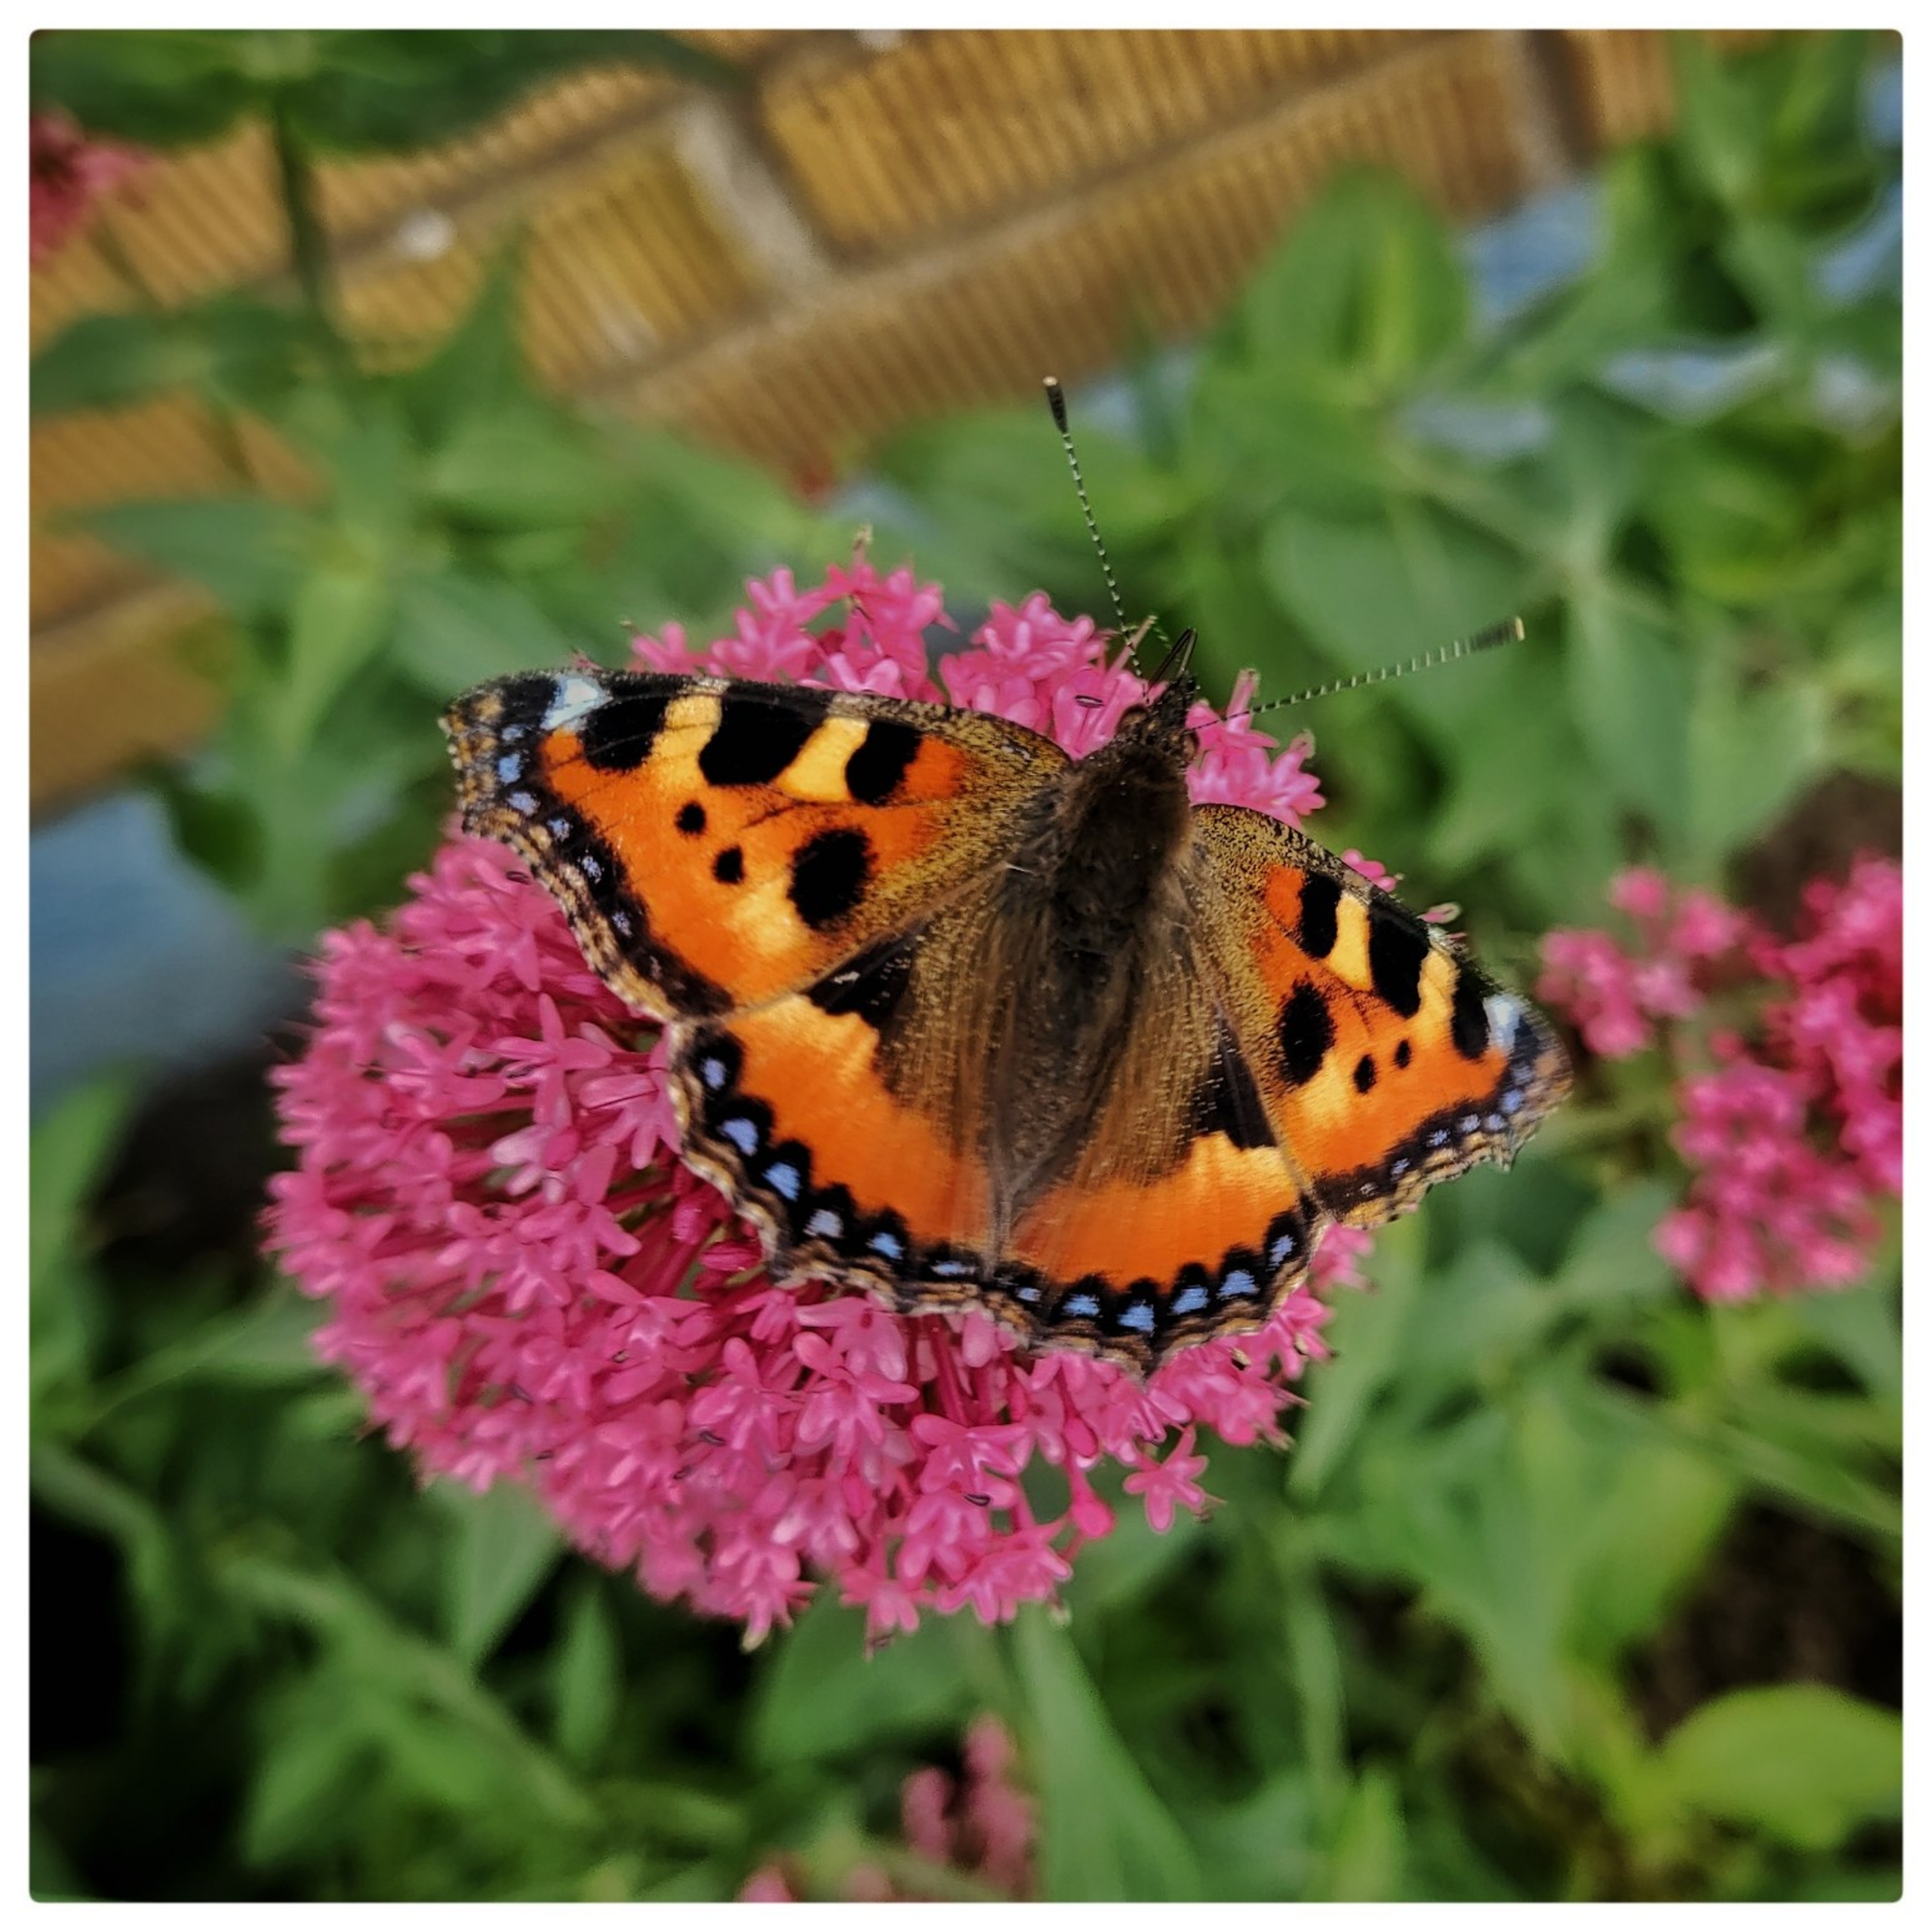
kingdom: Animalia
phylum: Arthropoda
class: Insecta
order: Lepidoptera
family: Nymphalidae
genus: Aglais
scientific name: Aglais urticae
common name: Nældens takvinge
